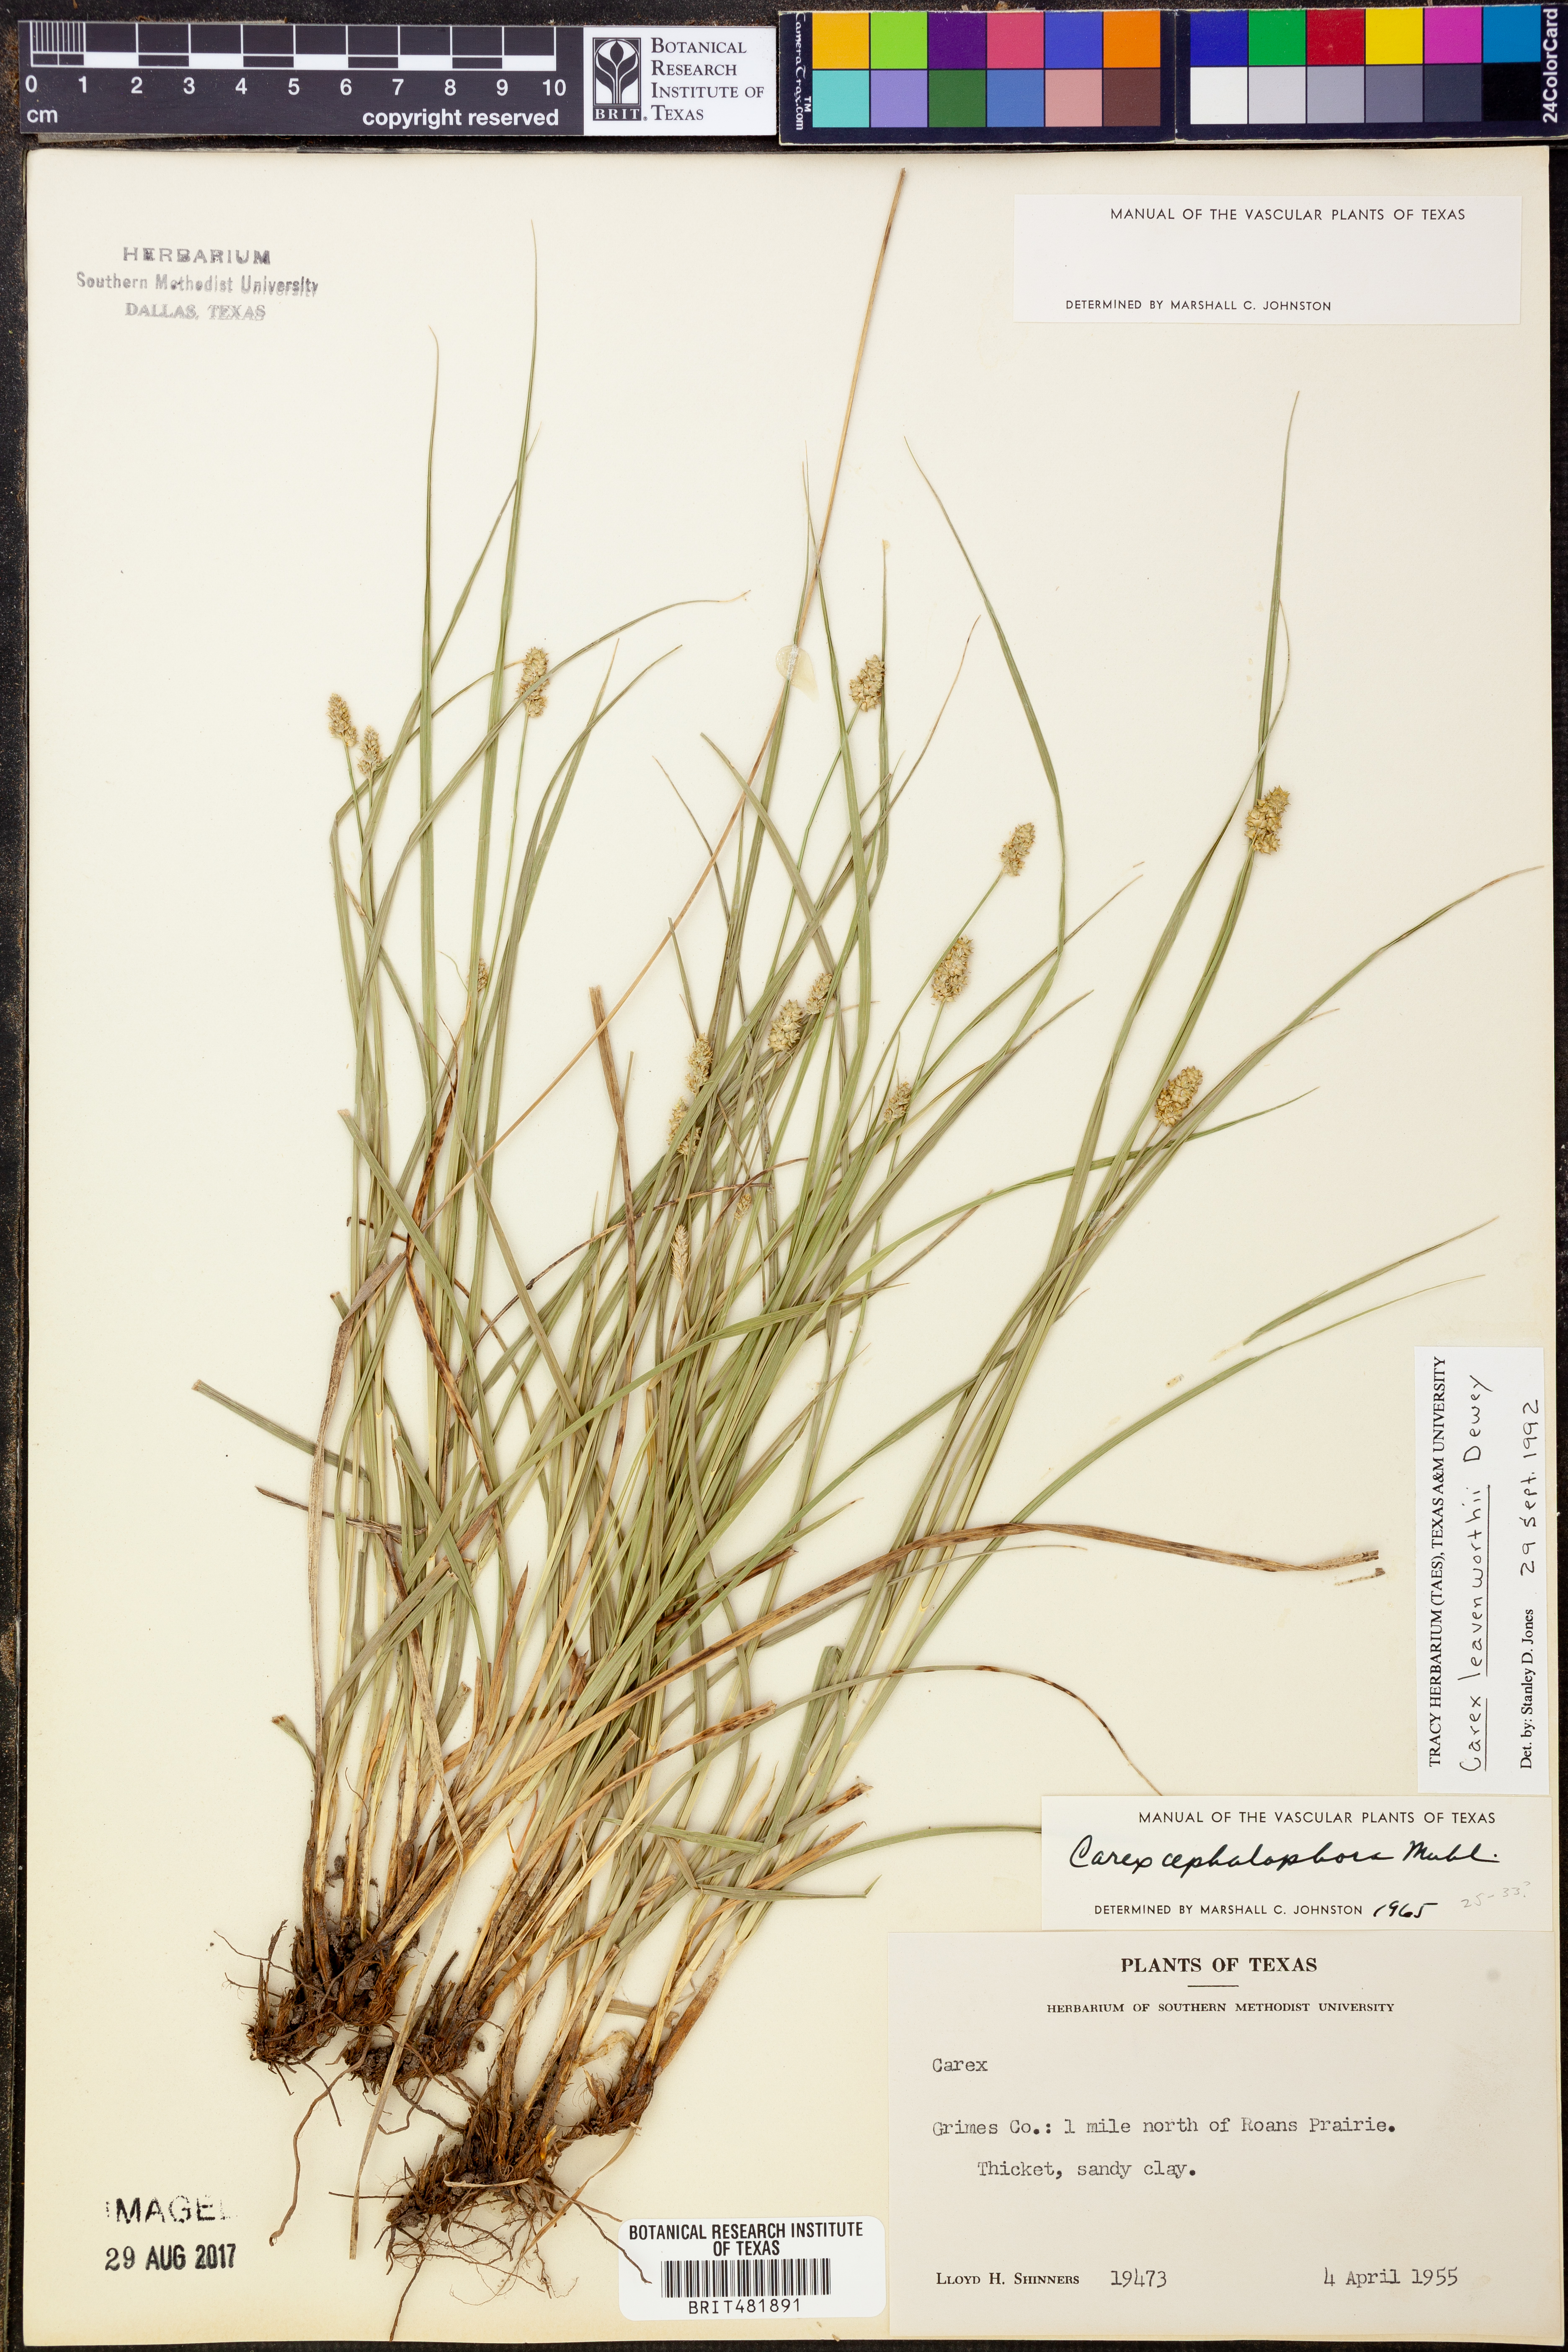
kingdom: Plantae
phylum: Tracheophyta
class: Liliopsida
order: Poales
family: Cyperaceae
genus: Carex
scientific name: Carex leavenworthii
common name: Leavenworth's bracted sedge
